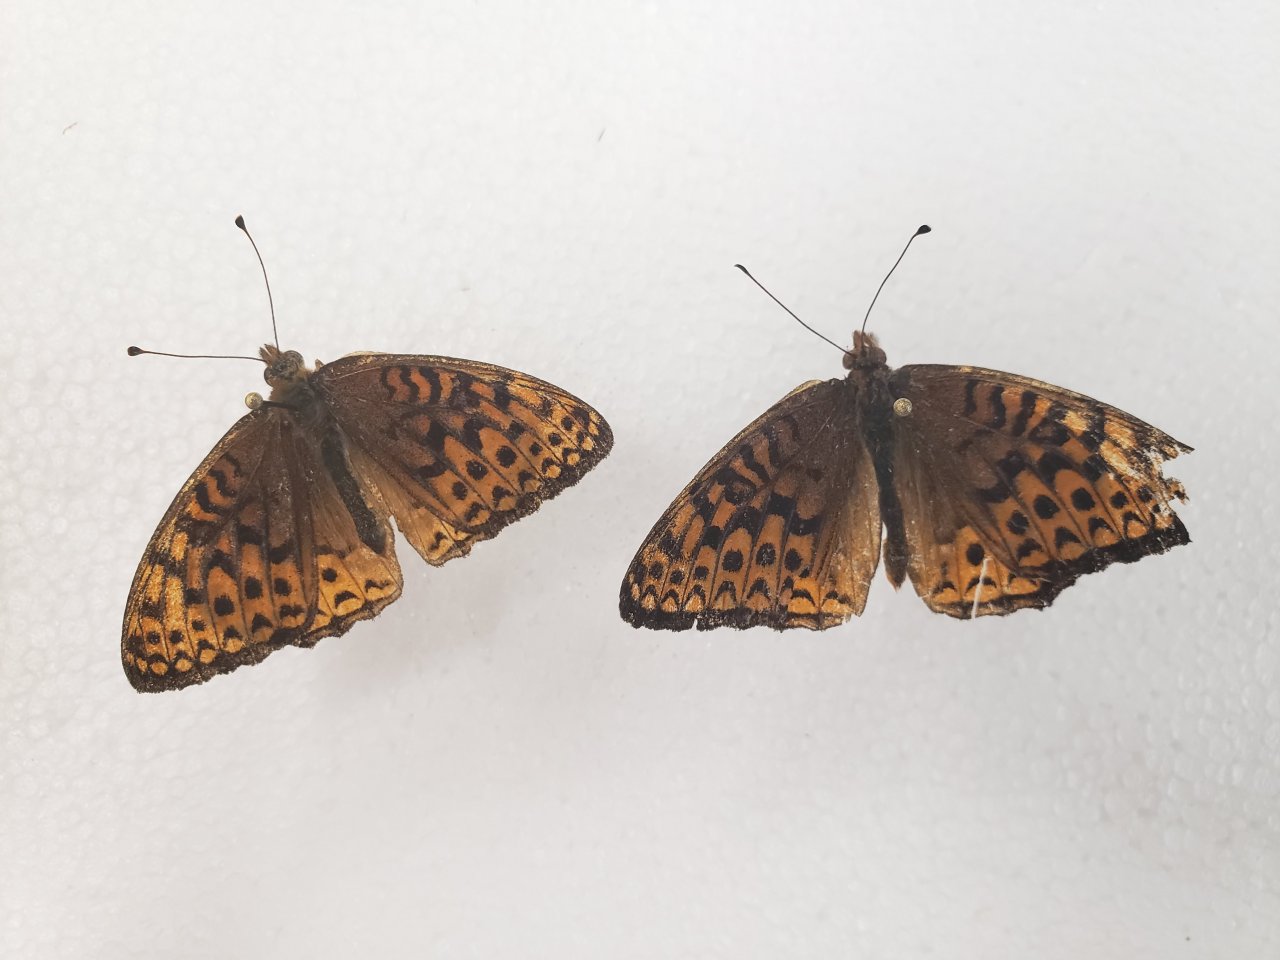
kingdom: Animalia
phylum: Arthropoda
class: Insecta
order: Lepidoptera
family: Nymphalidae
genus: Speyeria
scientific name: Speyeria atlantis
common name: Atlantis Fritillary
